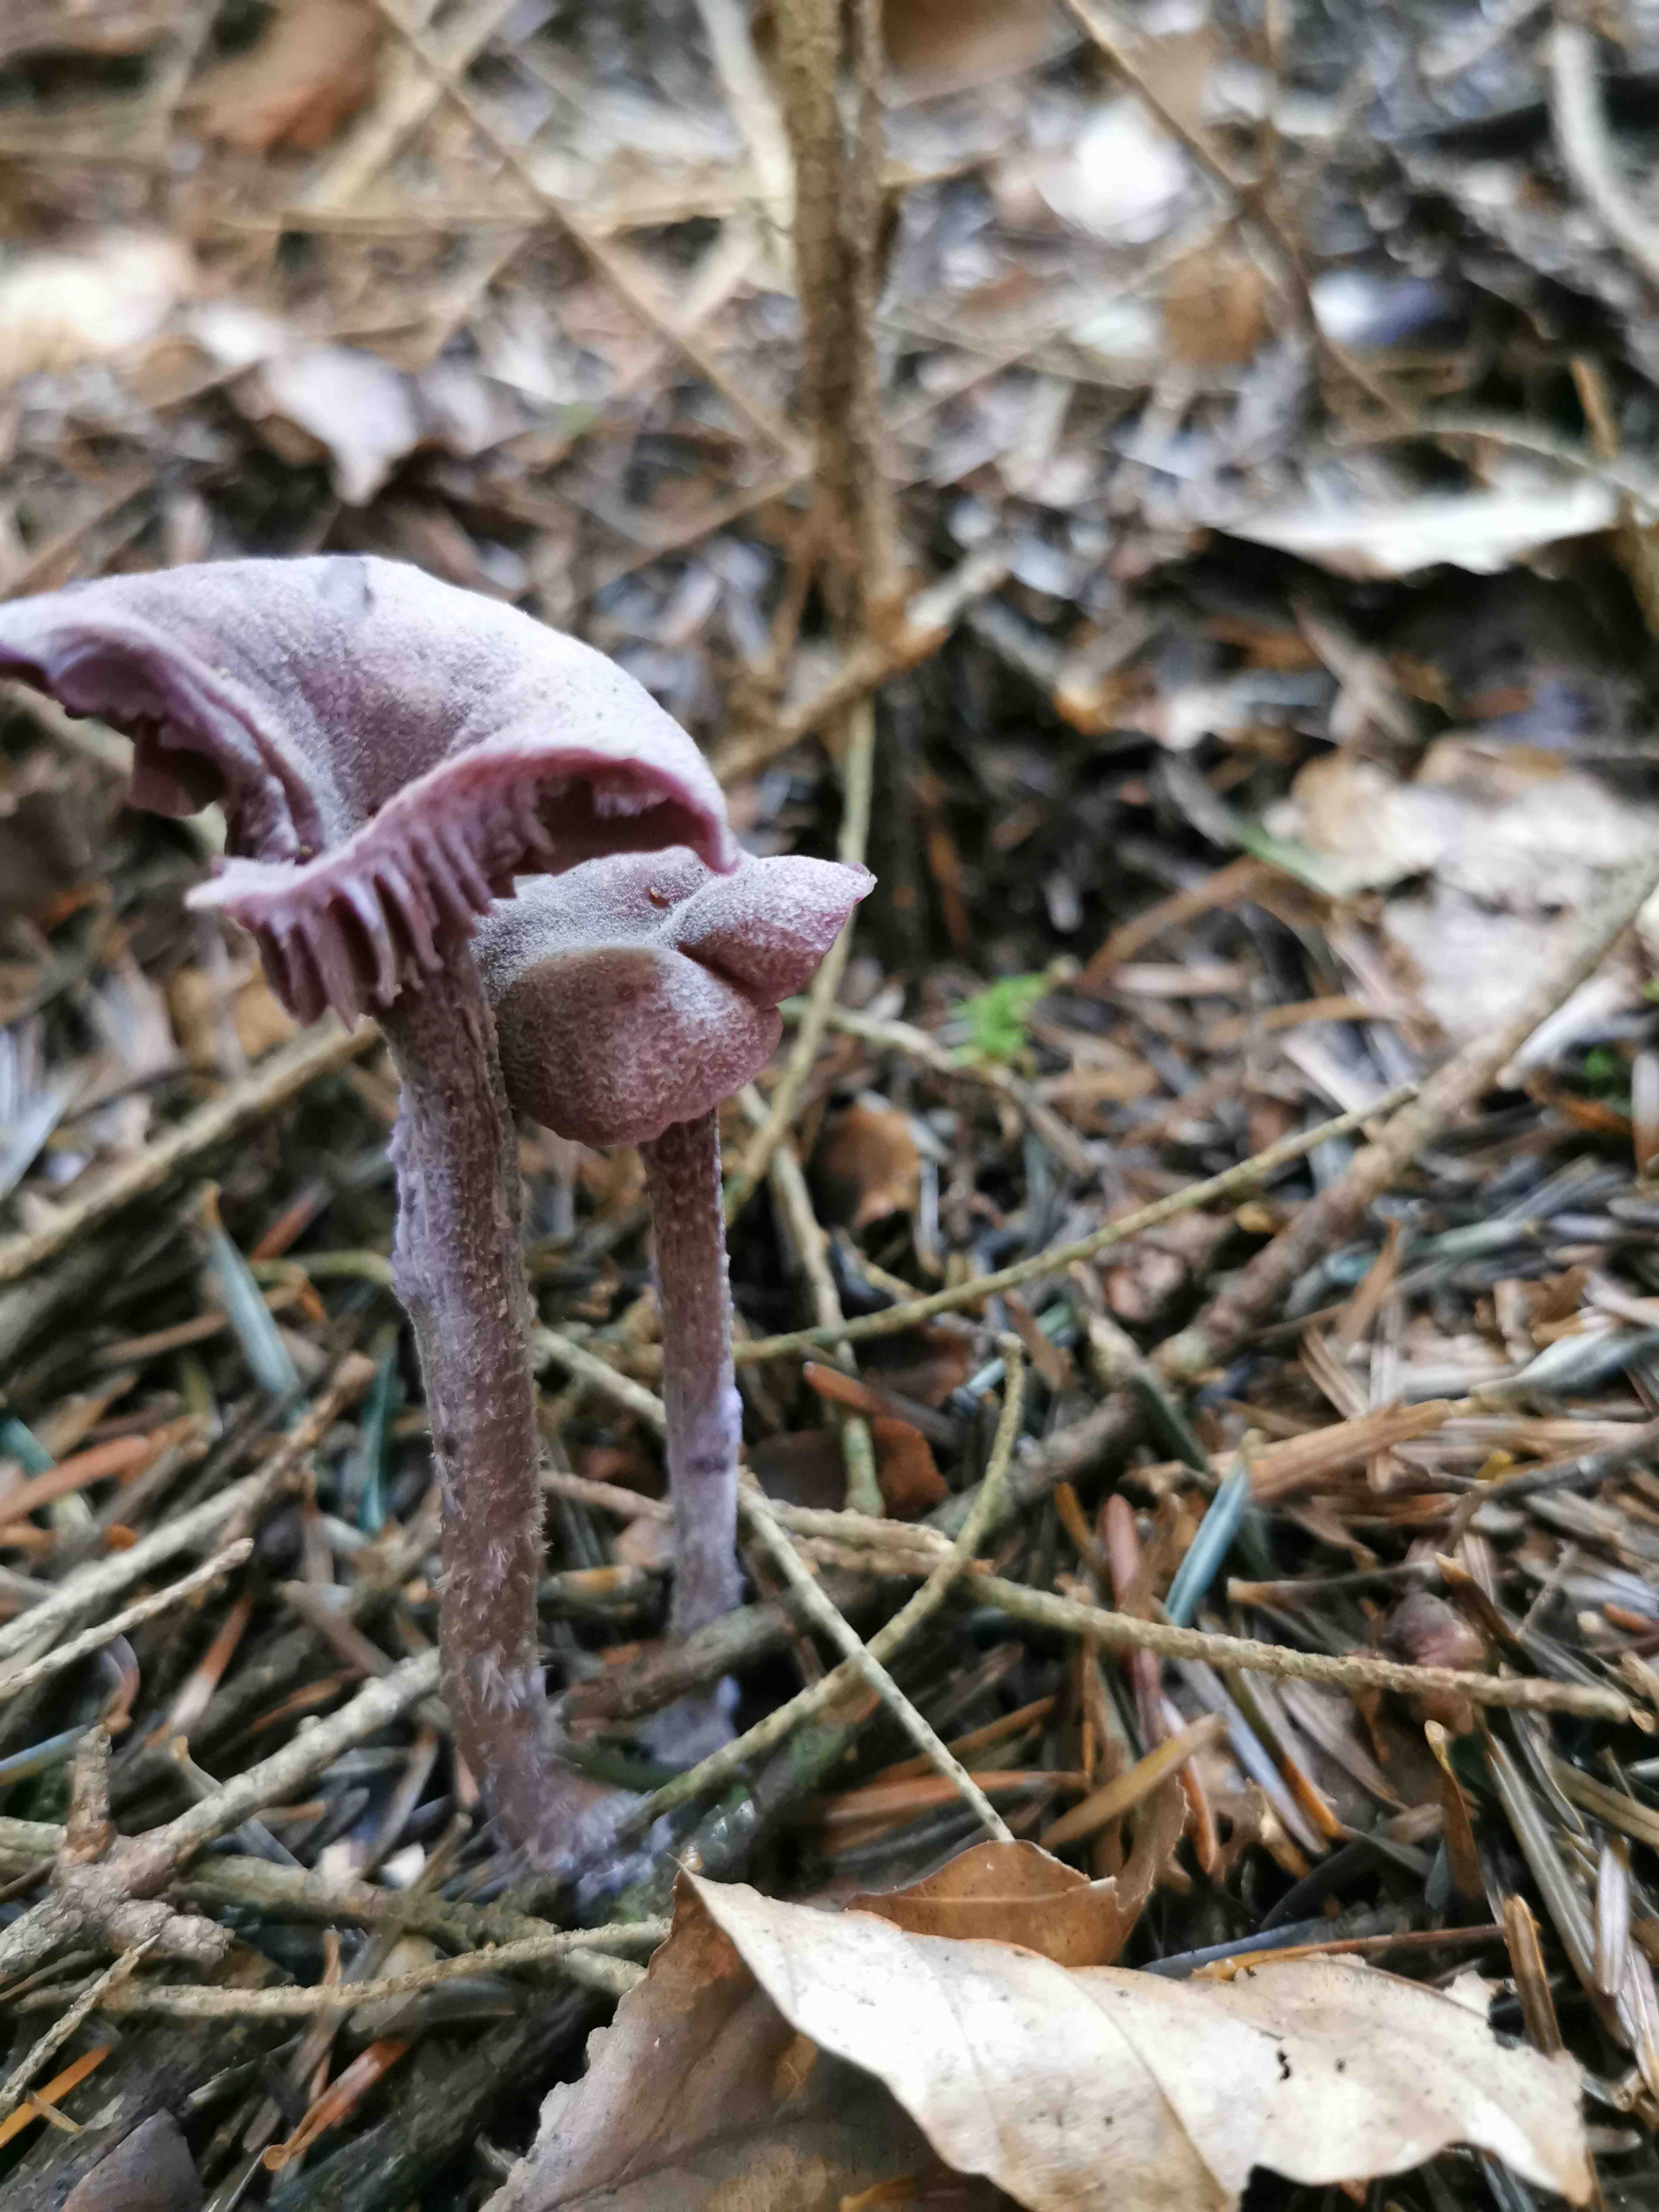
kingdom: Fungi
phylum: Basidiomycota
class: Agaricomycetes
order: Agaricales
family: Hydnangiaceae
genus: Laccaria
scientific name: Laccaria amethystina
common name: violet ametysthat
